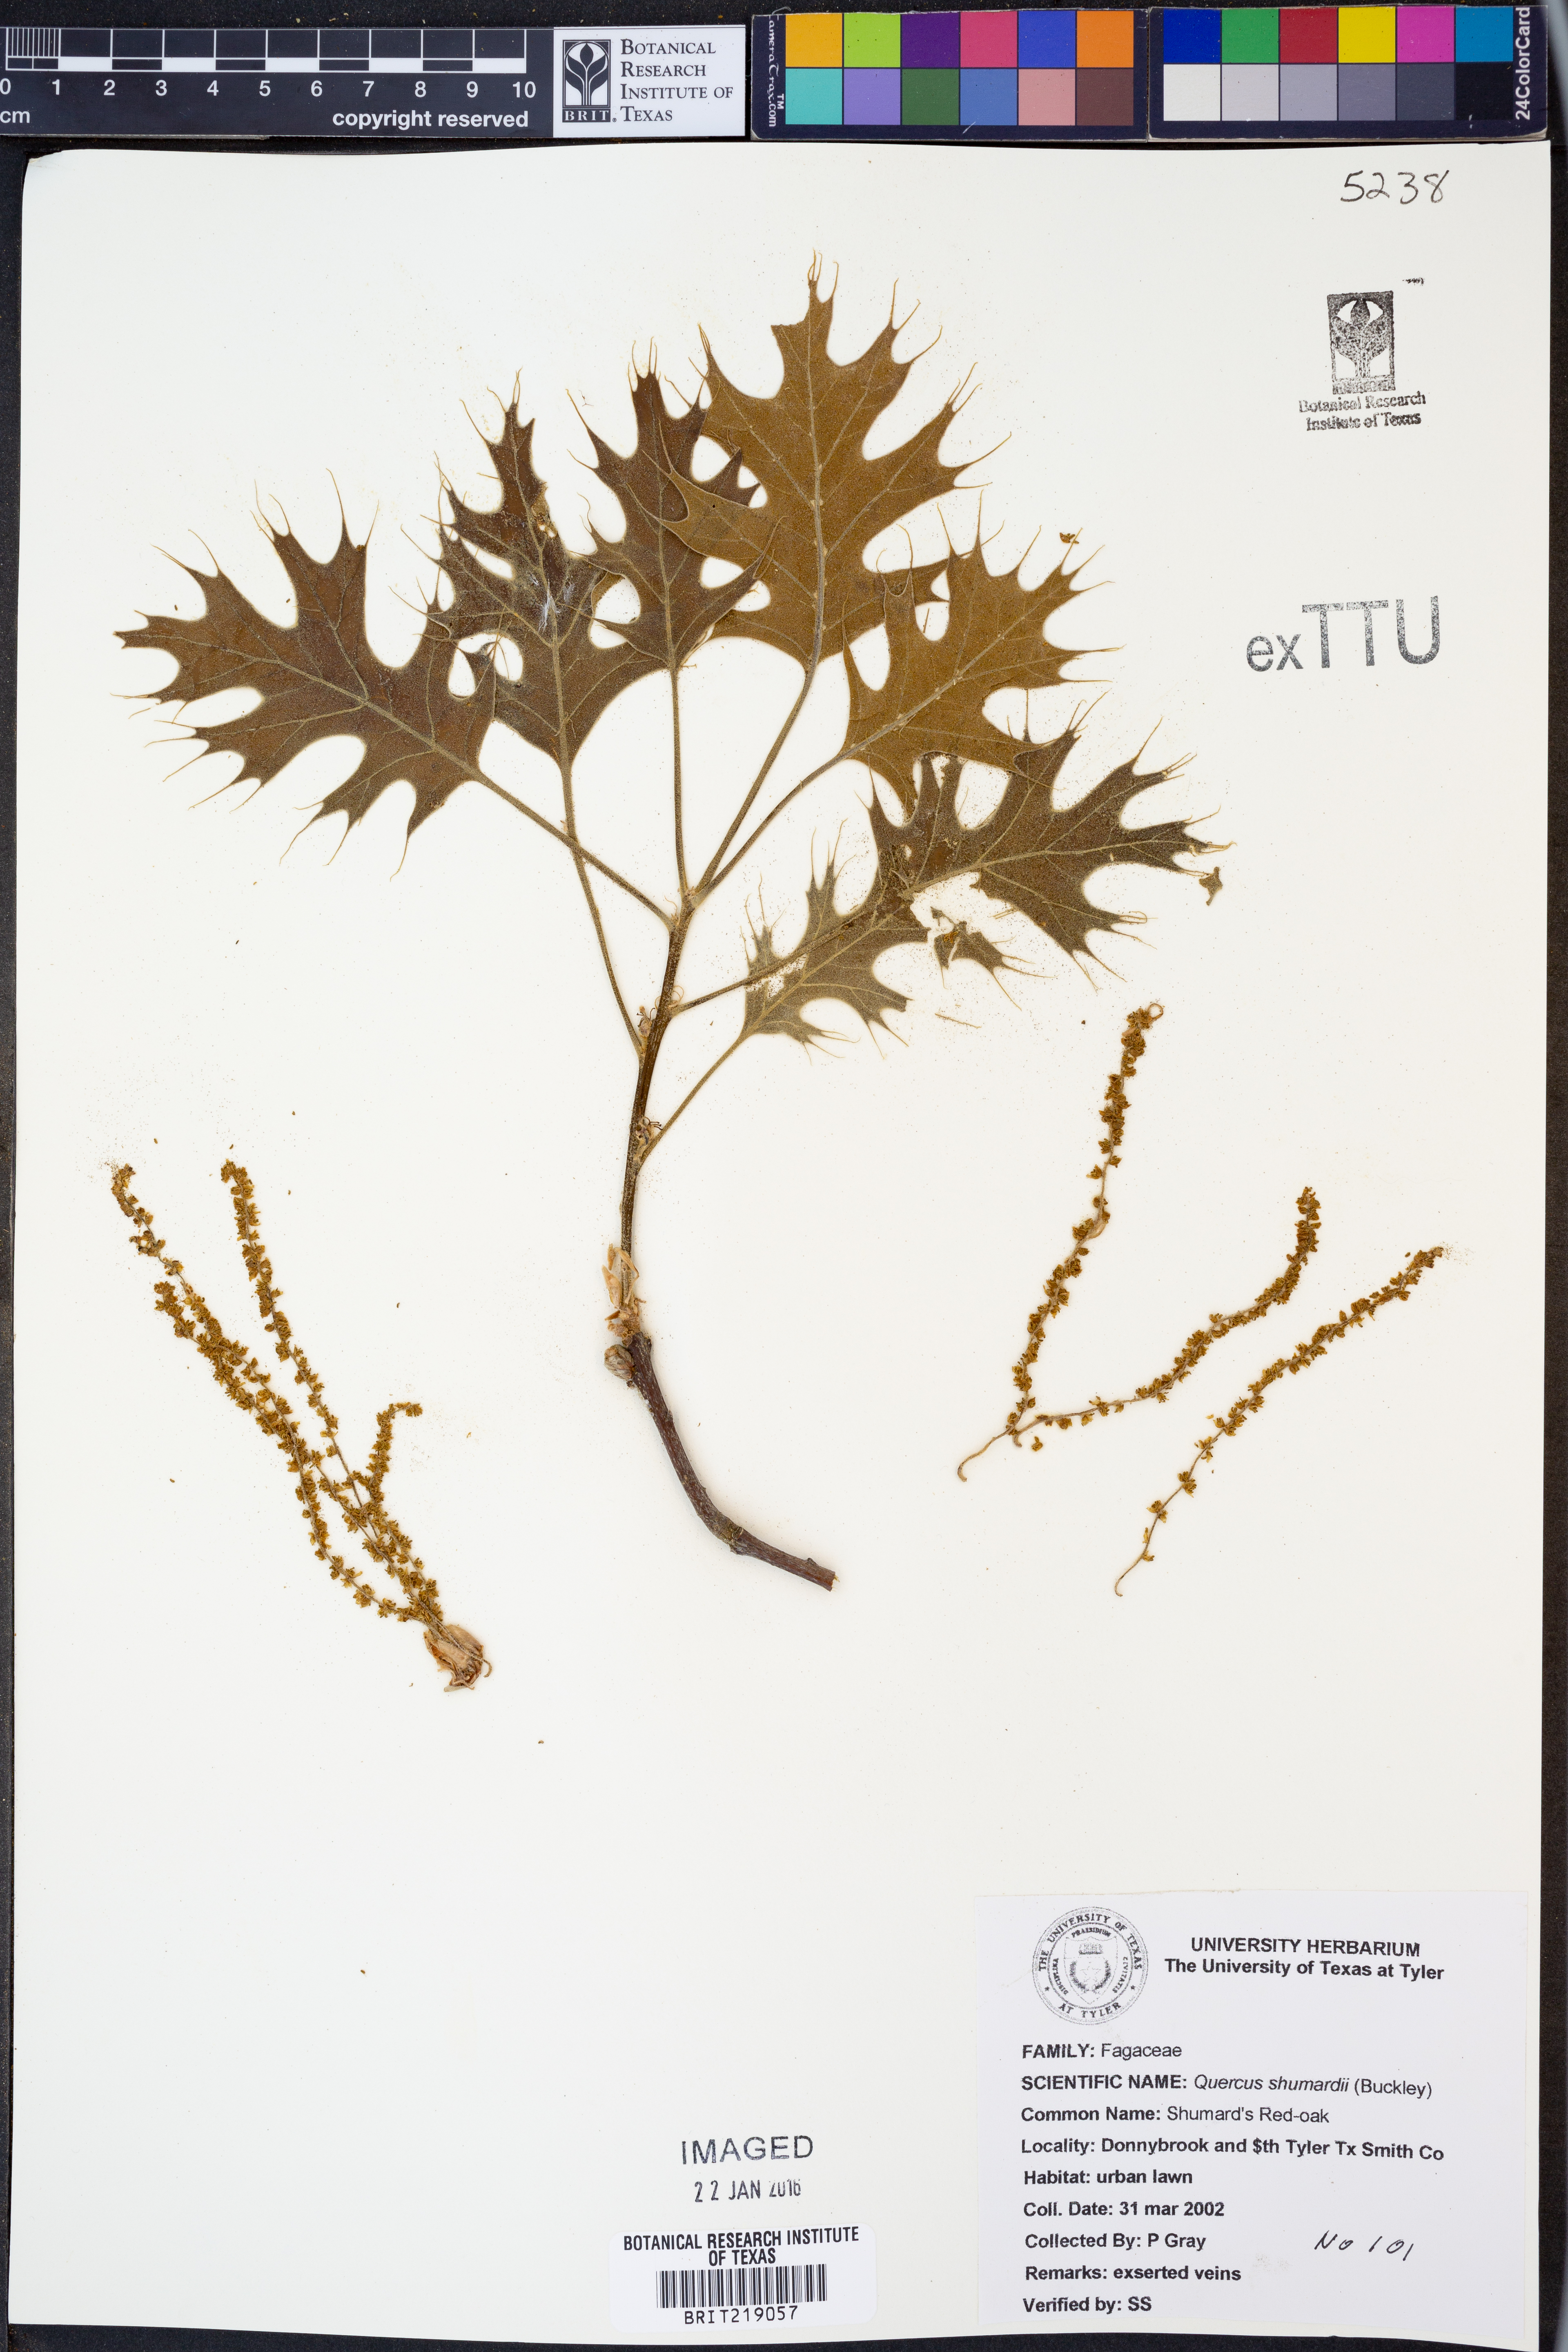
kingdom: Plantae
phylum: Tracheophyta
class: Magnoliopsida
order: Fagales
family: Fagaceae
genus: Quercus
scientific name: Quercus shumardii
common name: Shumard oak
